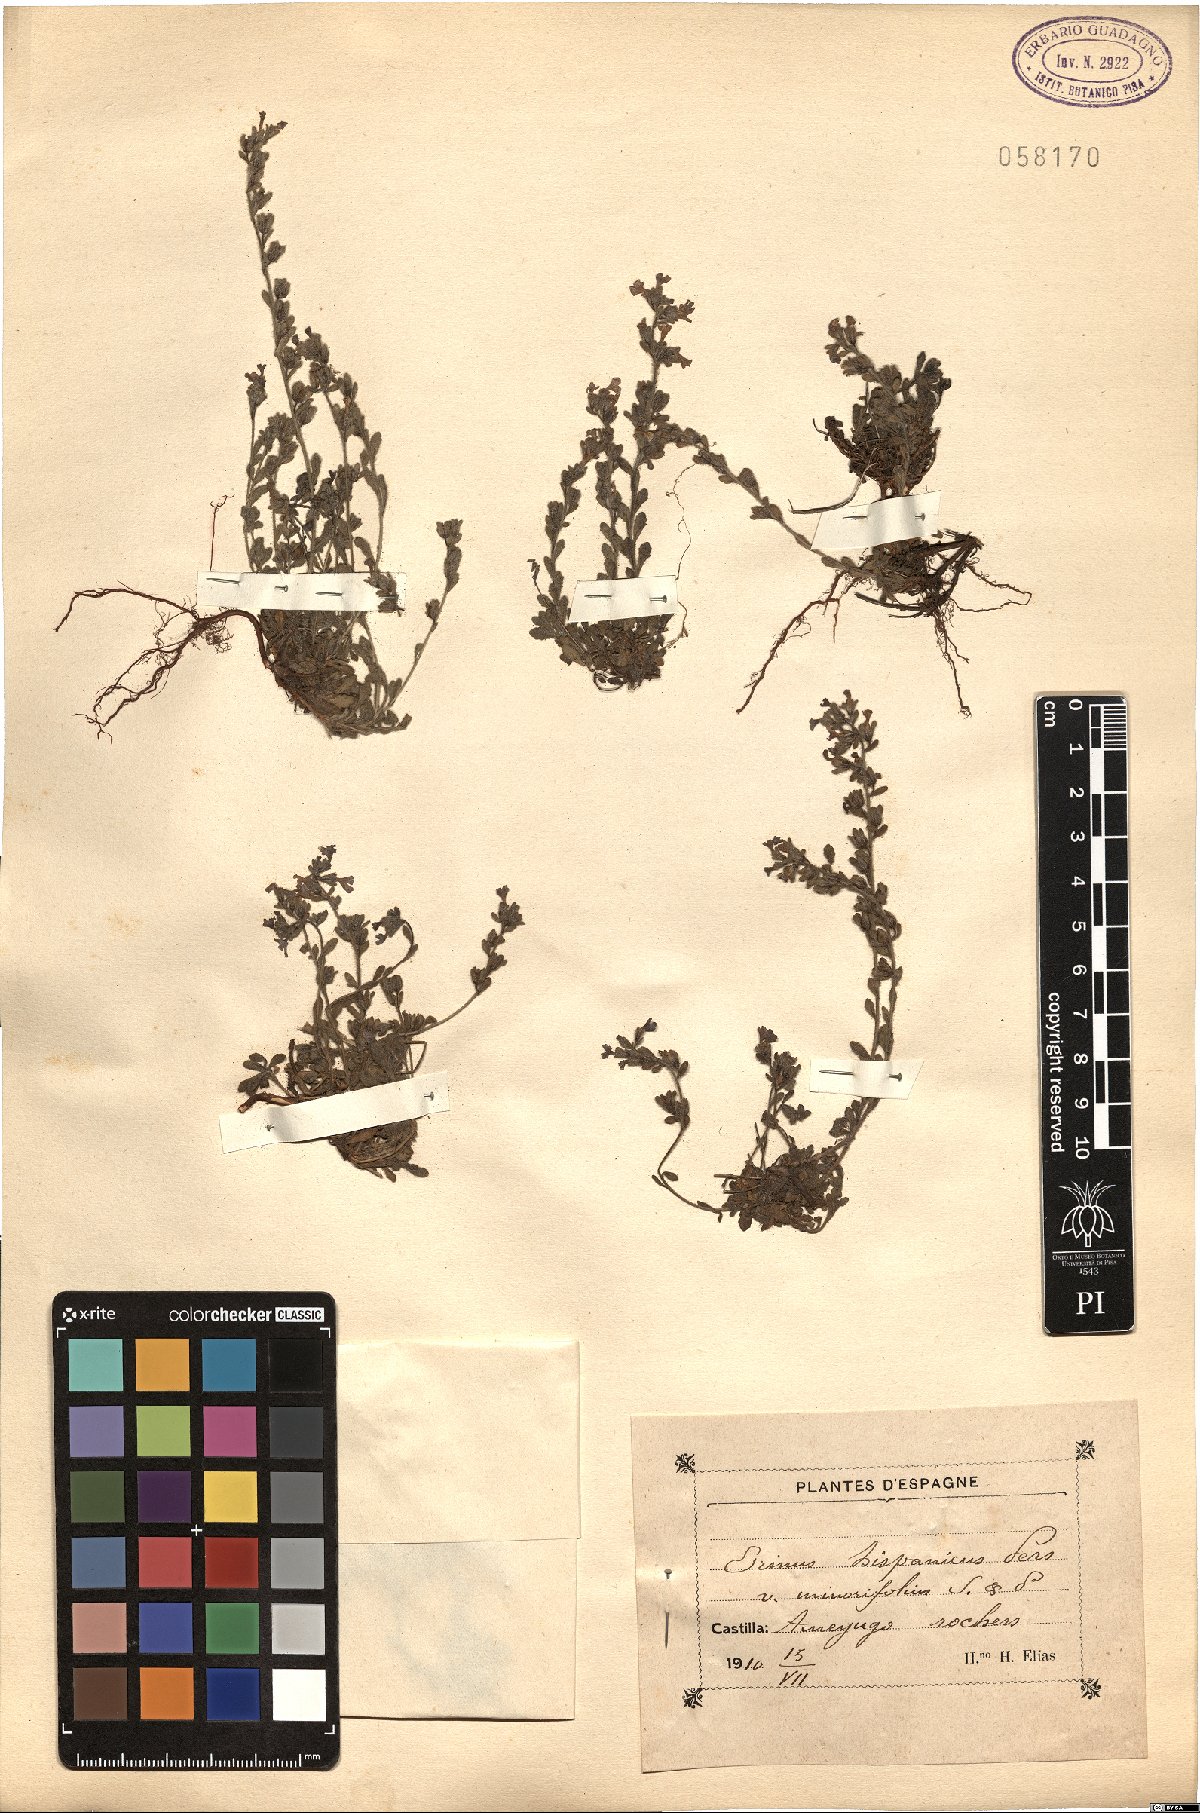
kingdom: Plantae
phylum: Tracheophyta
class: Magnoliopsida
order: Lamiales
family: Plantaginaceae
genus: Erinus
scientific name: Erinus alpinus
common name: Fairy foxglove
